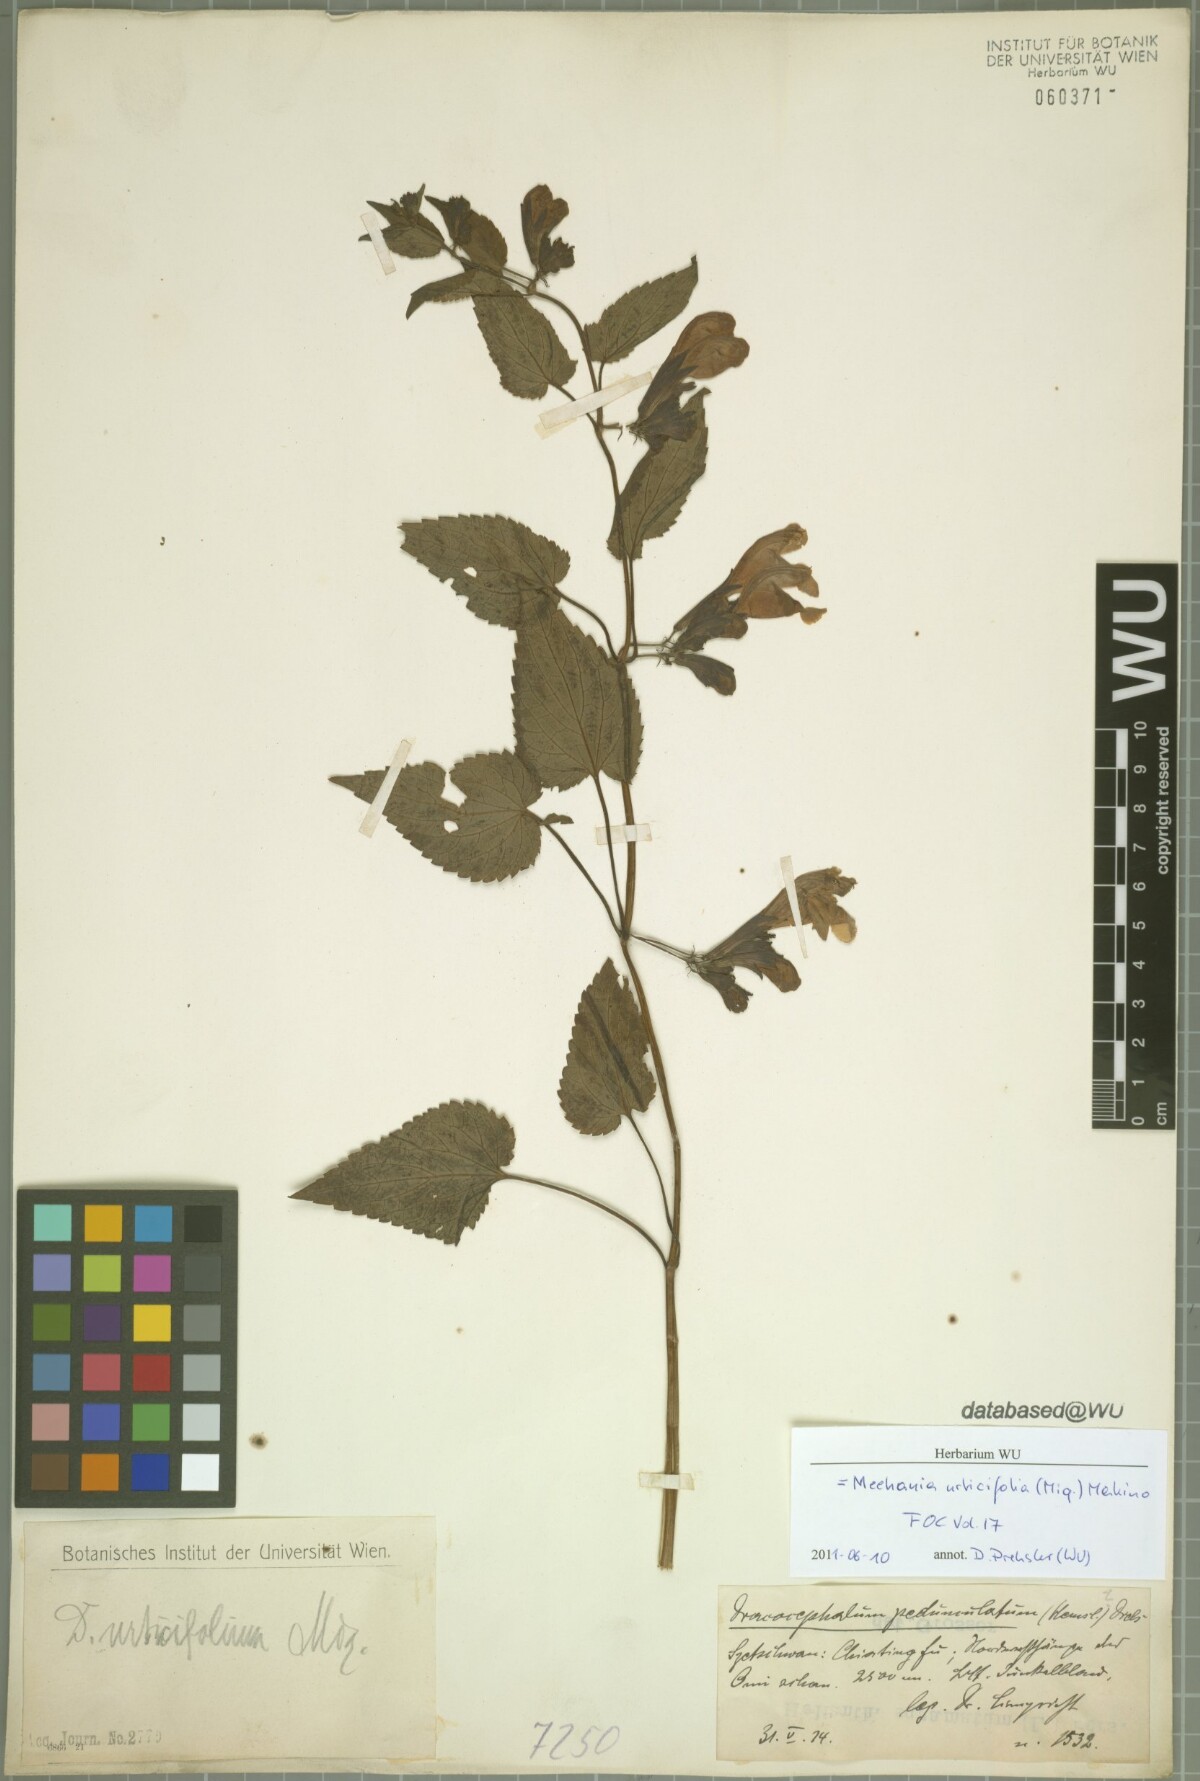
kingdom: Plantae
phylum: Tracheophyta
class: Magnoliopsida
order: Lamiales
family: Lamiaceae
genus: Meehania
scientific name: Meehania urticifolia
